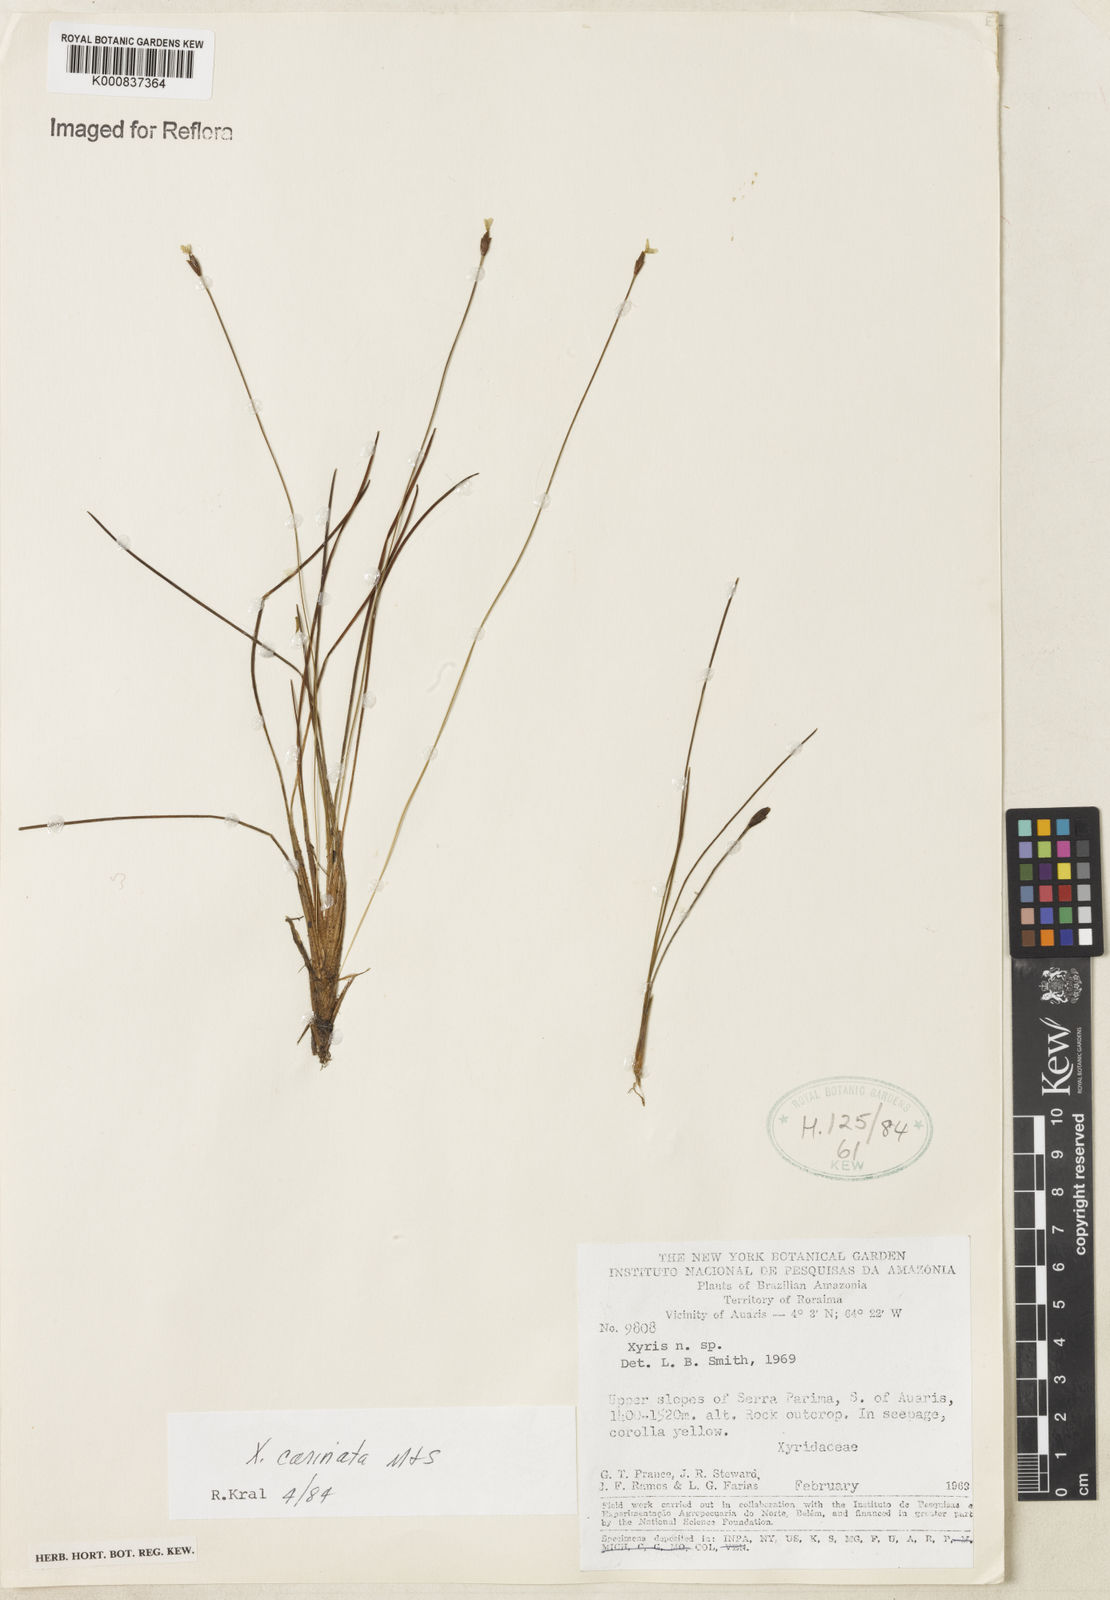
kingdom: Plantae
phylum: Tracheophyta
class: Liliopsida
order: Poales
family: Xyridaceae
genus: Xyris
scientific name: Xyris carinata
